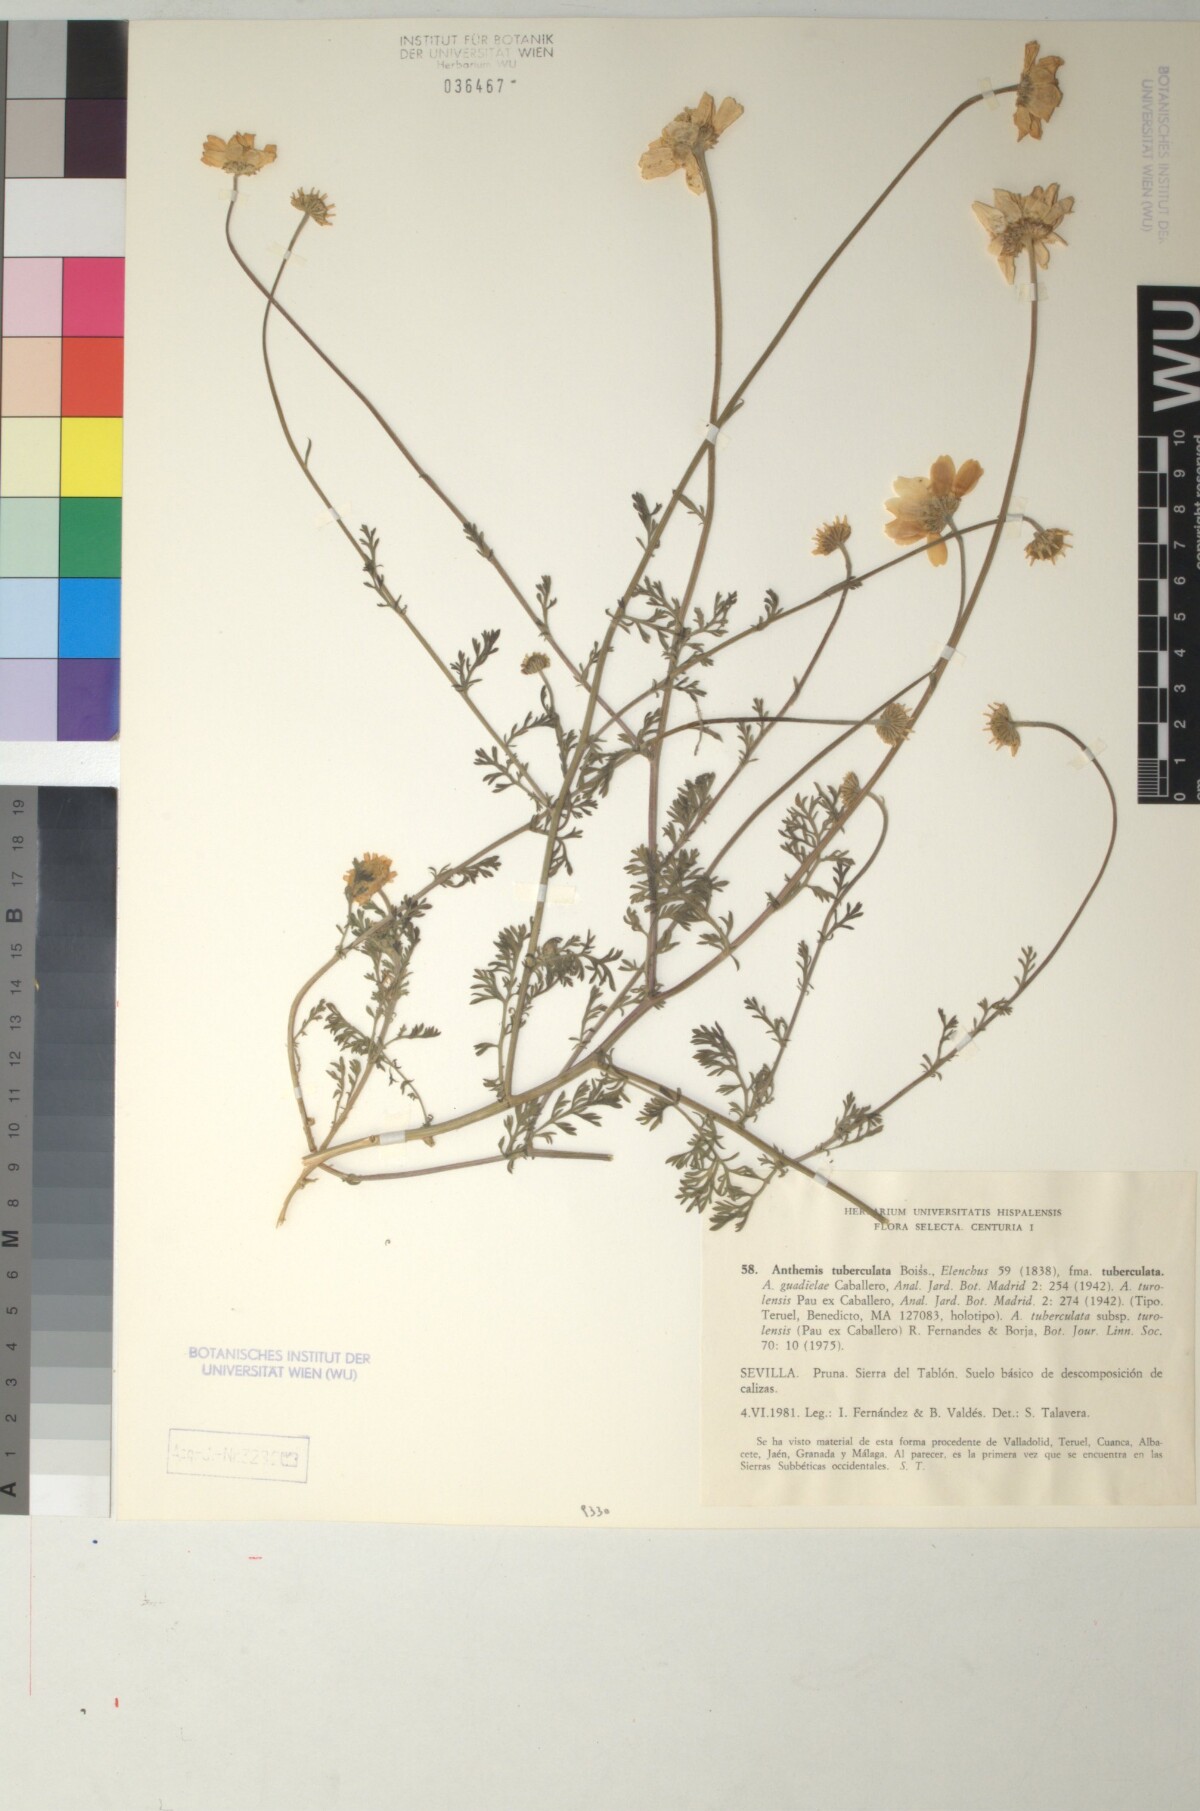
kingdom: Plantae
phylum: Tracheophyta
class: Magnoliopsida
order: Asterales
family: Asteraceae
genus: Anthemis
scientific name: Anthemis pedunculata
